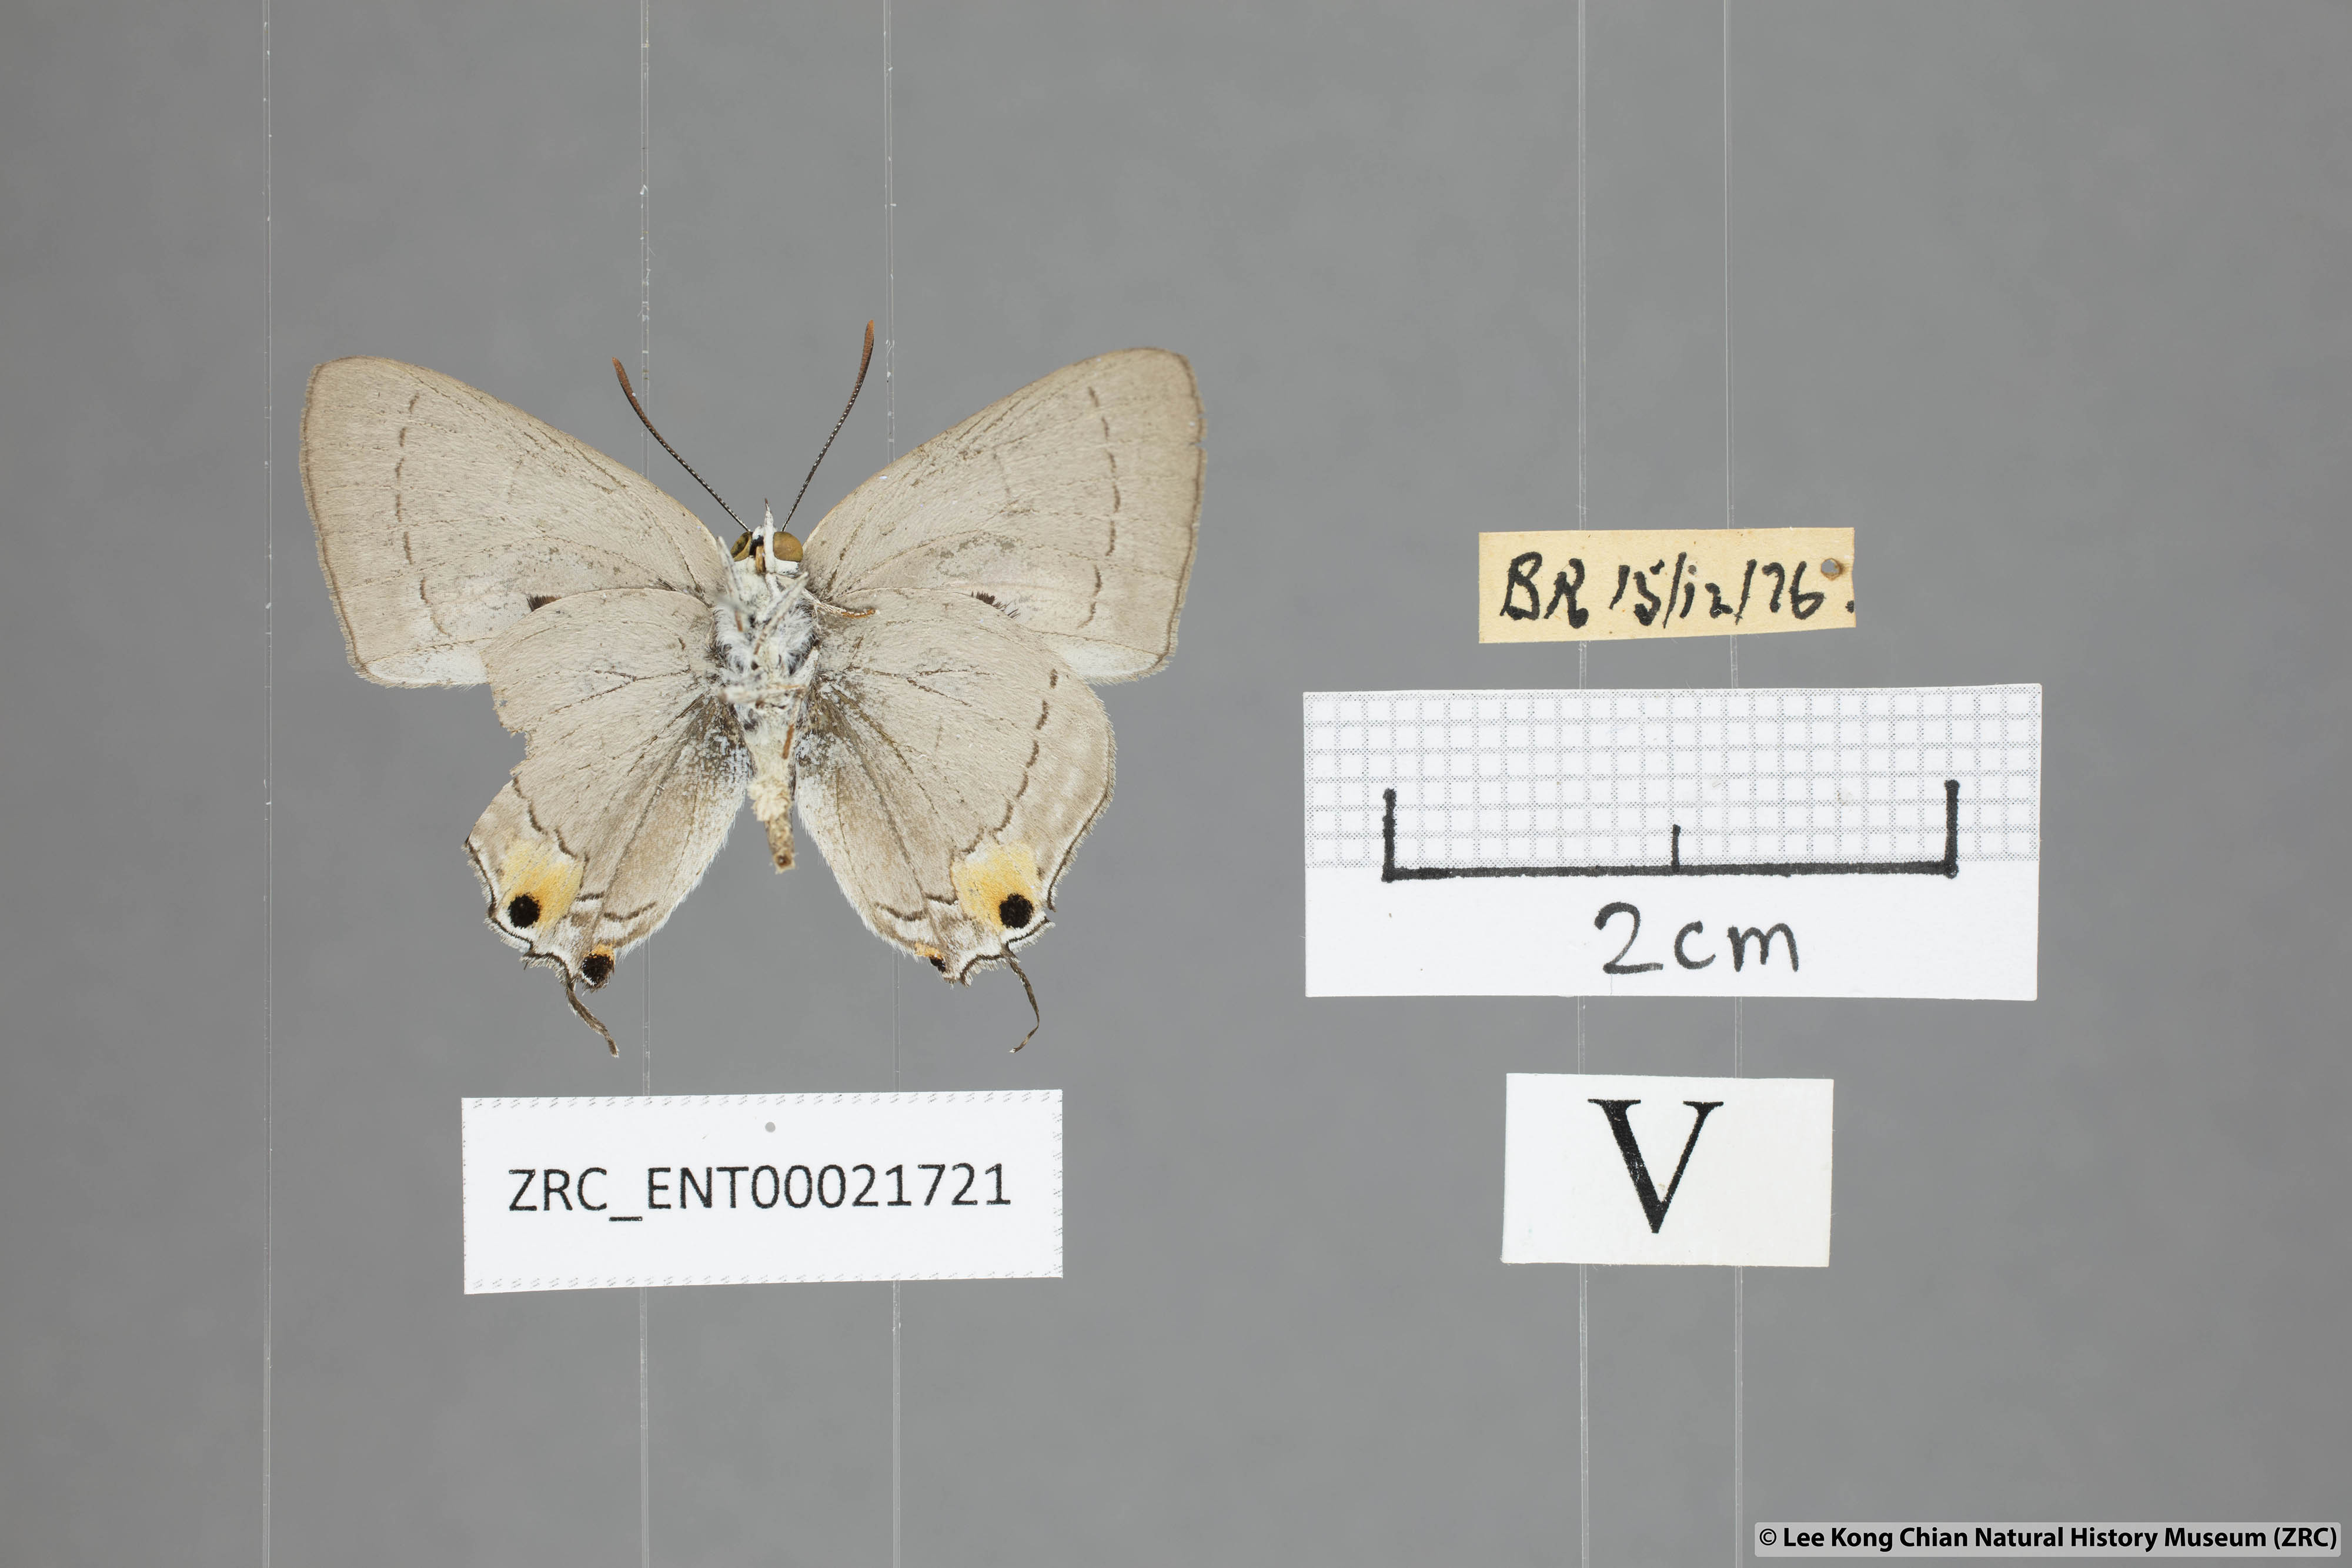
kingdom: Animalia
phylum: Arthropoda
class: Insecta
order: Lepidoptera
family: Lycaenidae
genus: Pratapa
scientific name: Pratapa deva
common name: White royal
